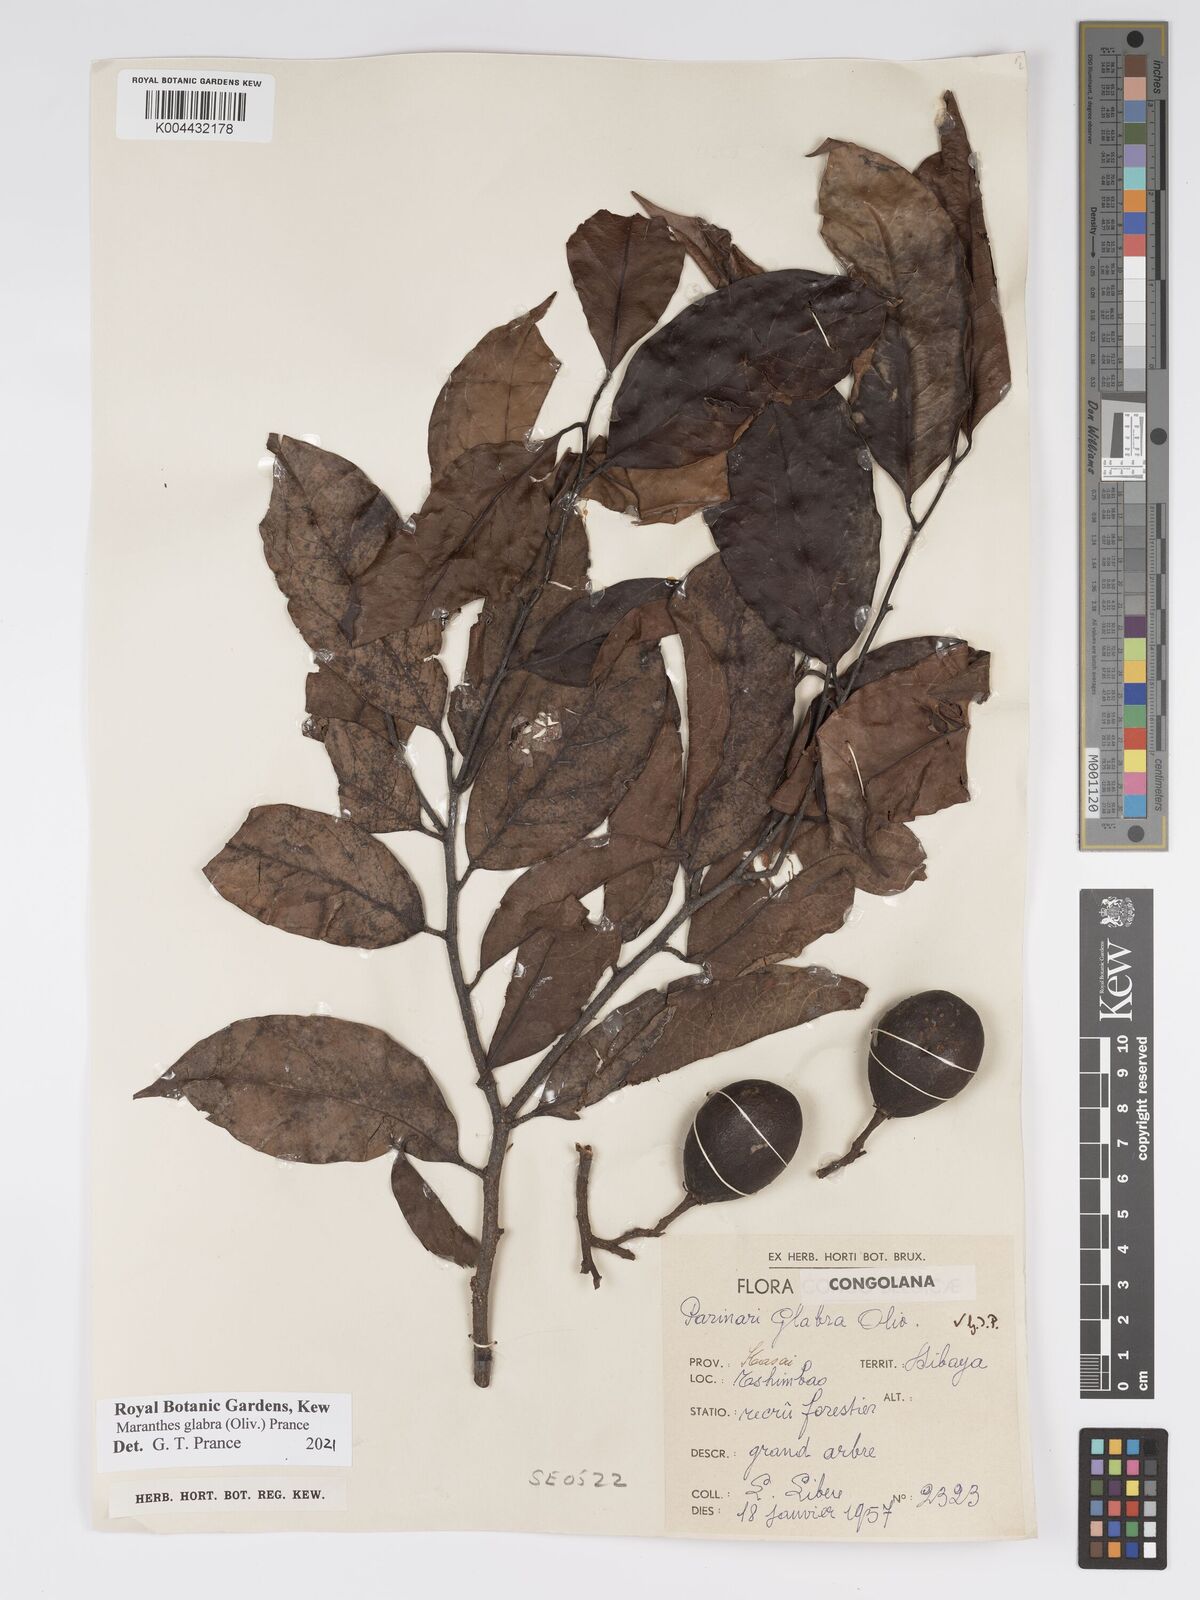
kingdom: Plantae
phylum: Tracheophyta
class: Magnoliopsida
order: Malpighiales
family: Chrysobalanaceae
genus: Maranthes
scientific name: Maranthes glabra
